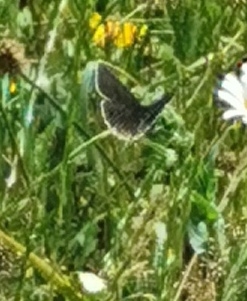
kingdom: Animalia
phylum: Arthropoda
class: Insecta
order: Lepidoptera
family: Nymphalidae
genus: Aphantopus
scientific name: Aphantopus hyperantus
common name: Engrandøje
